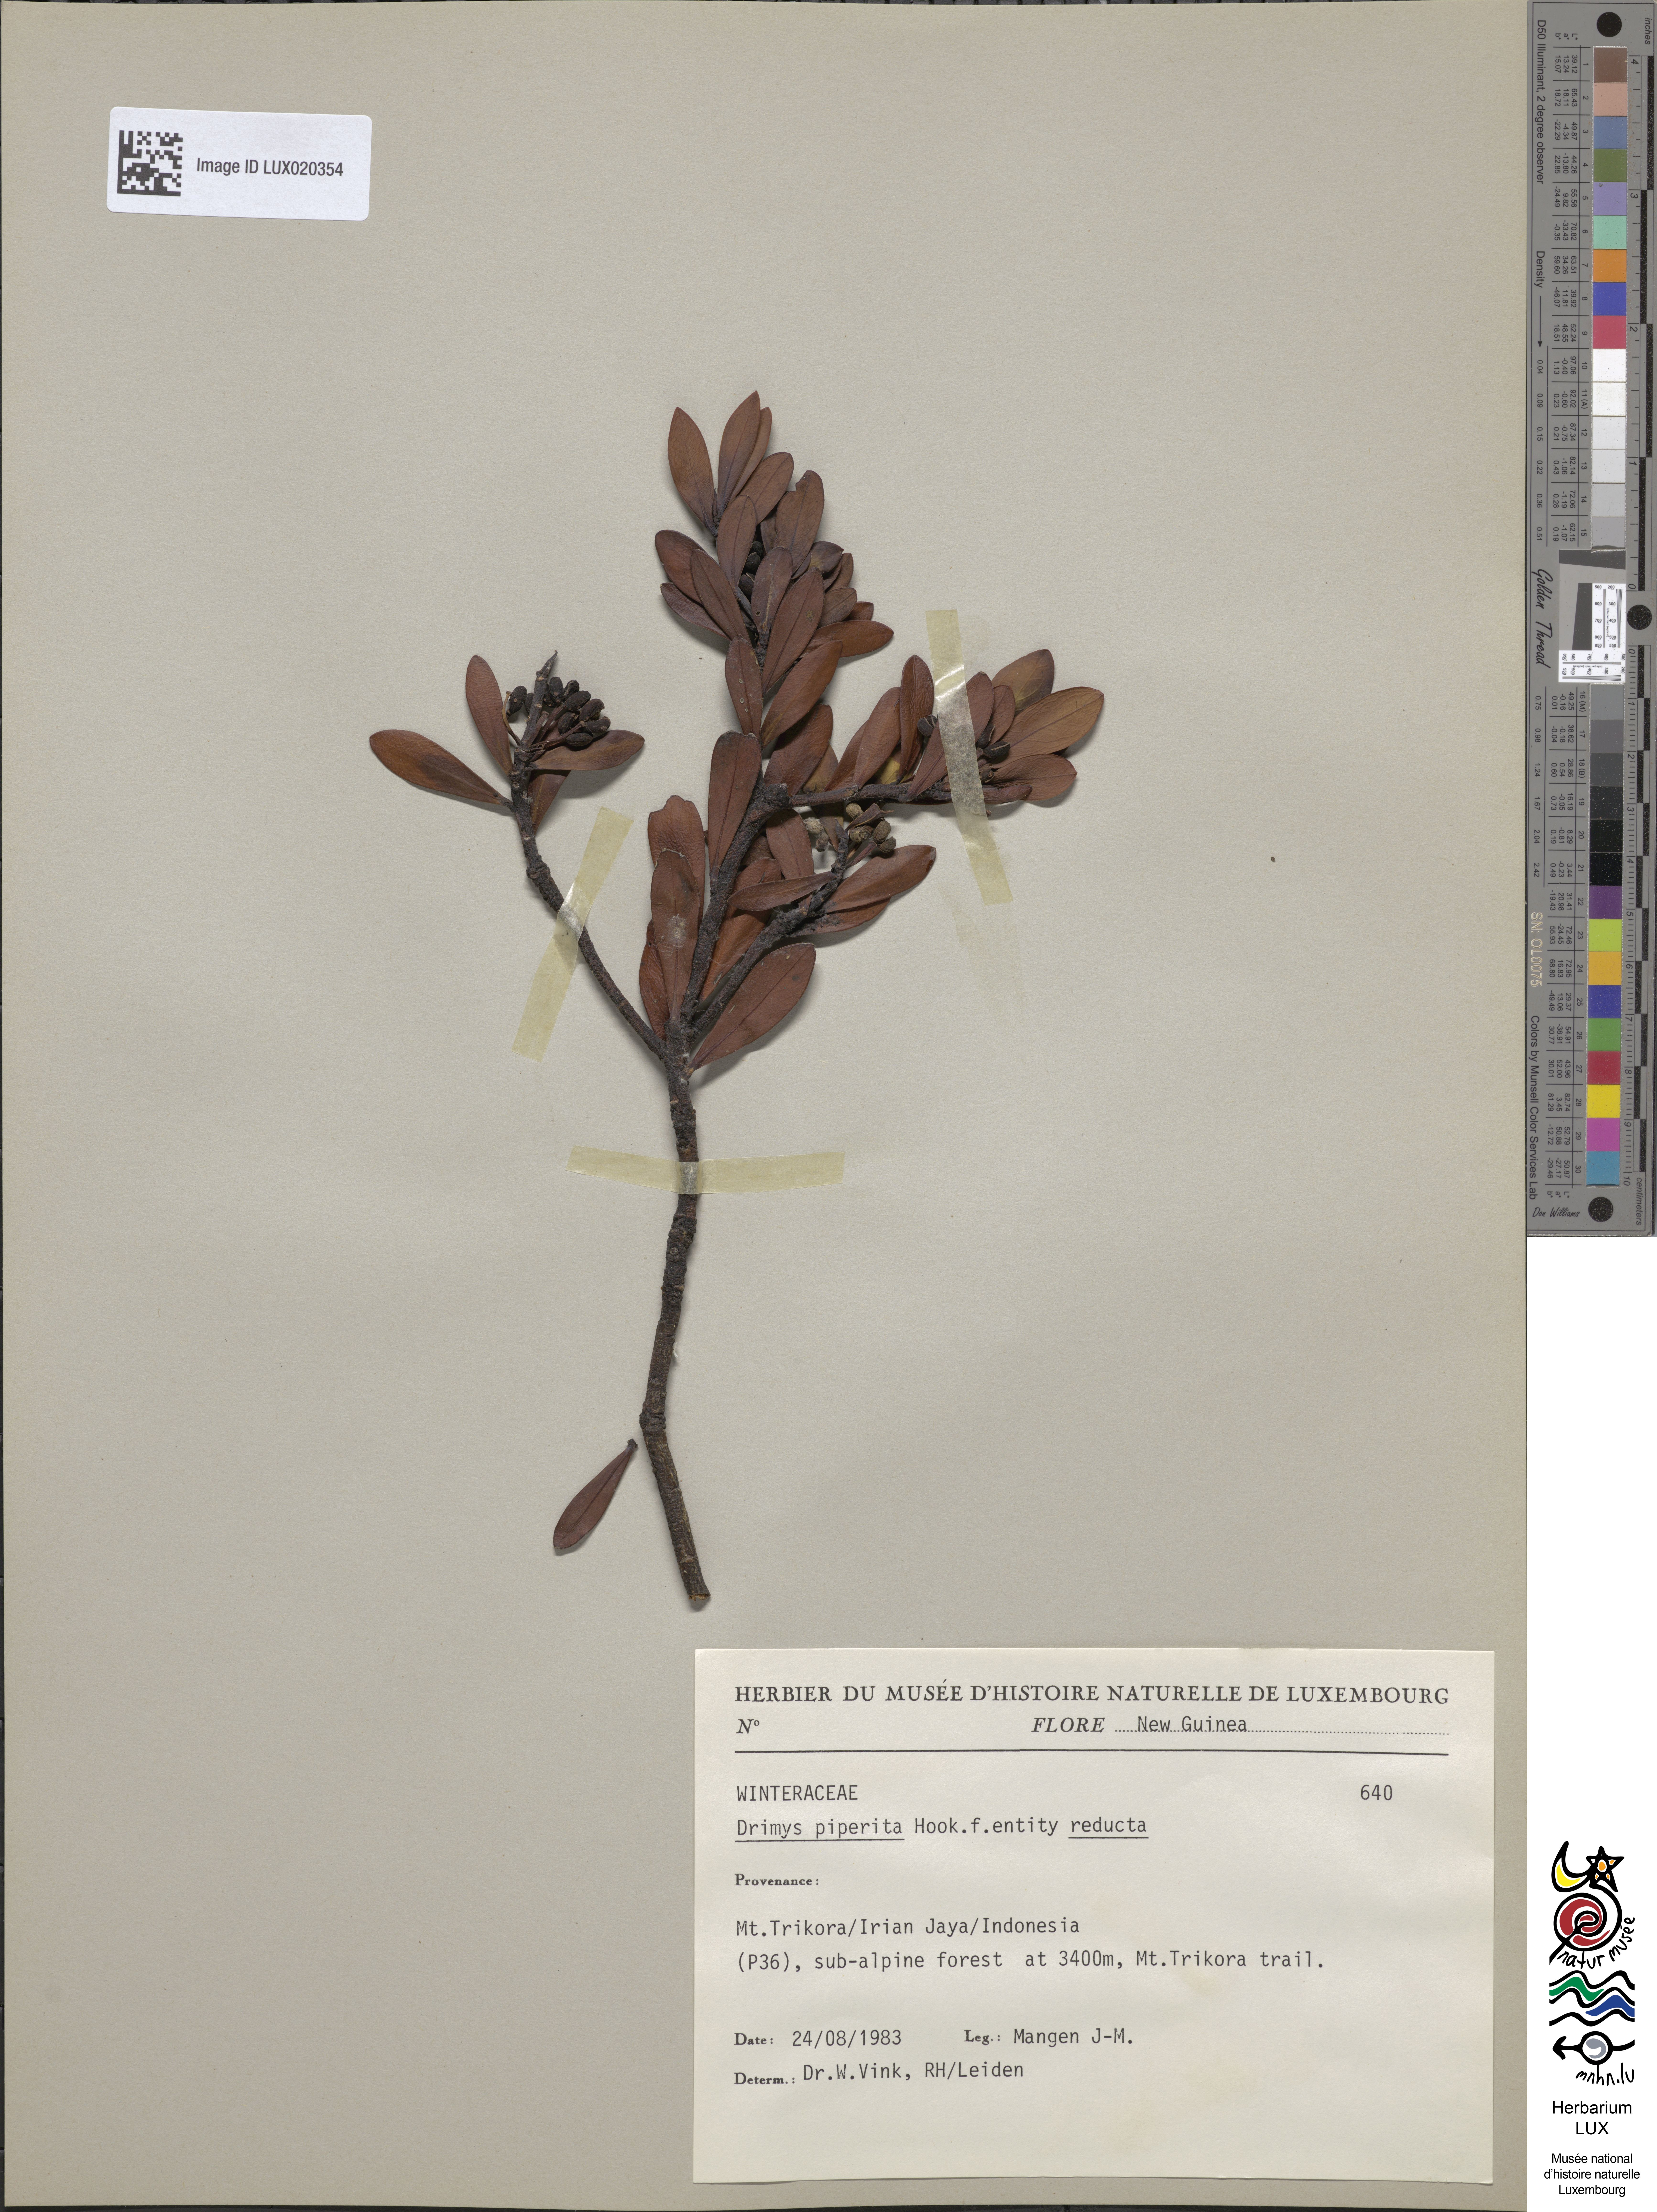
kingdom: Plantae
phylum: Tracheophyta
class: Magnoliopsida
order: Canellales
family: Winteraceae
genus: Drimys
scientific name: Drimys piperita
